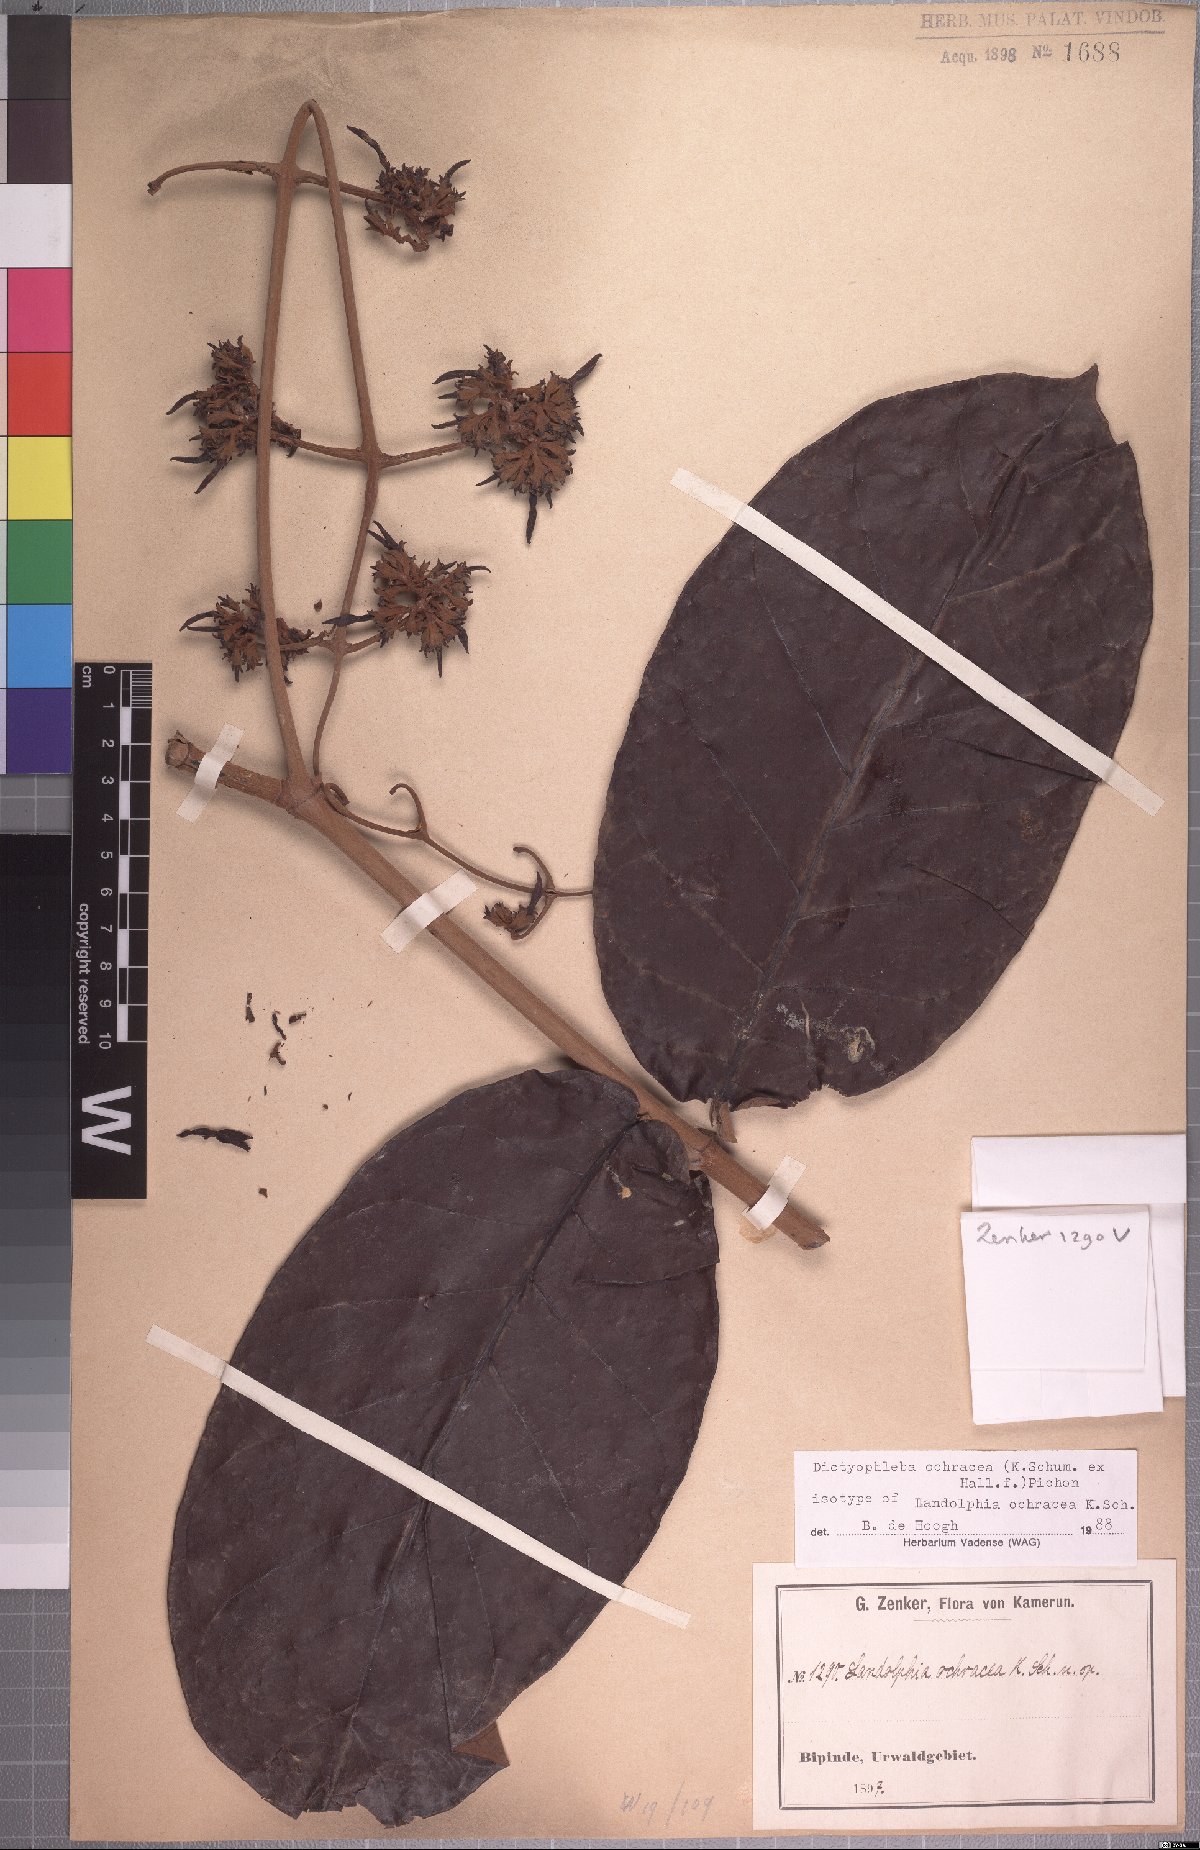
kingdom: Plantae
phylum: Tracheophyta
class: Magnoliopsida
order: Gentianales
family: Apocynaceae
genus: Dictyophleba
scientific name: Dictyophleba ochracea
